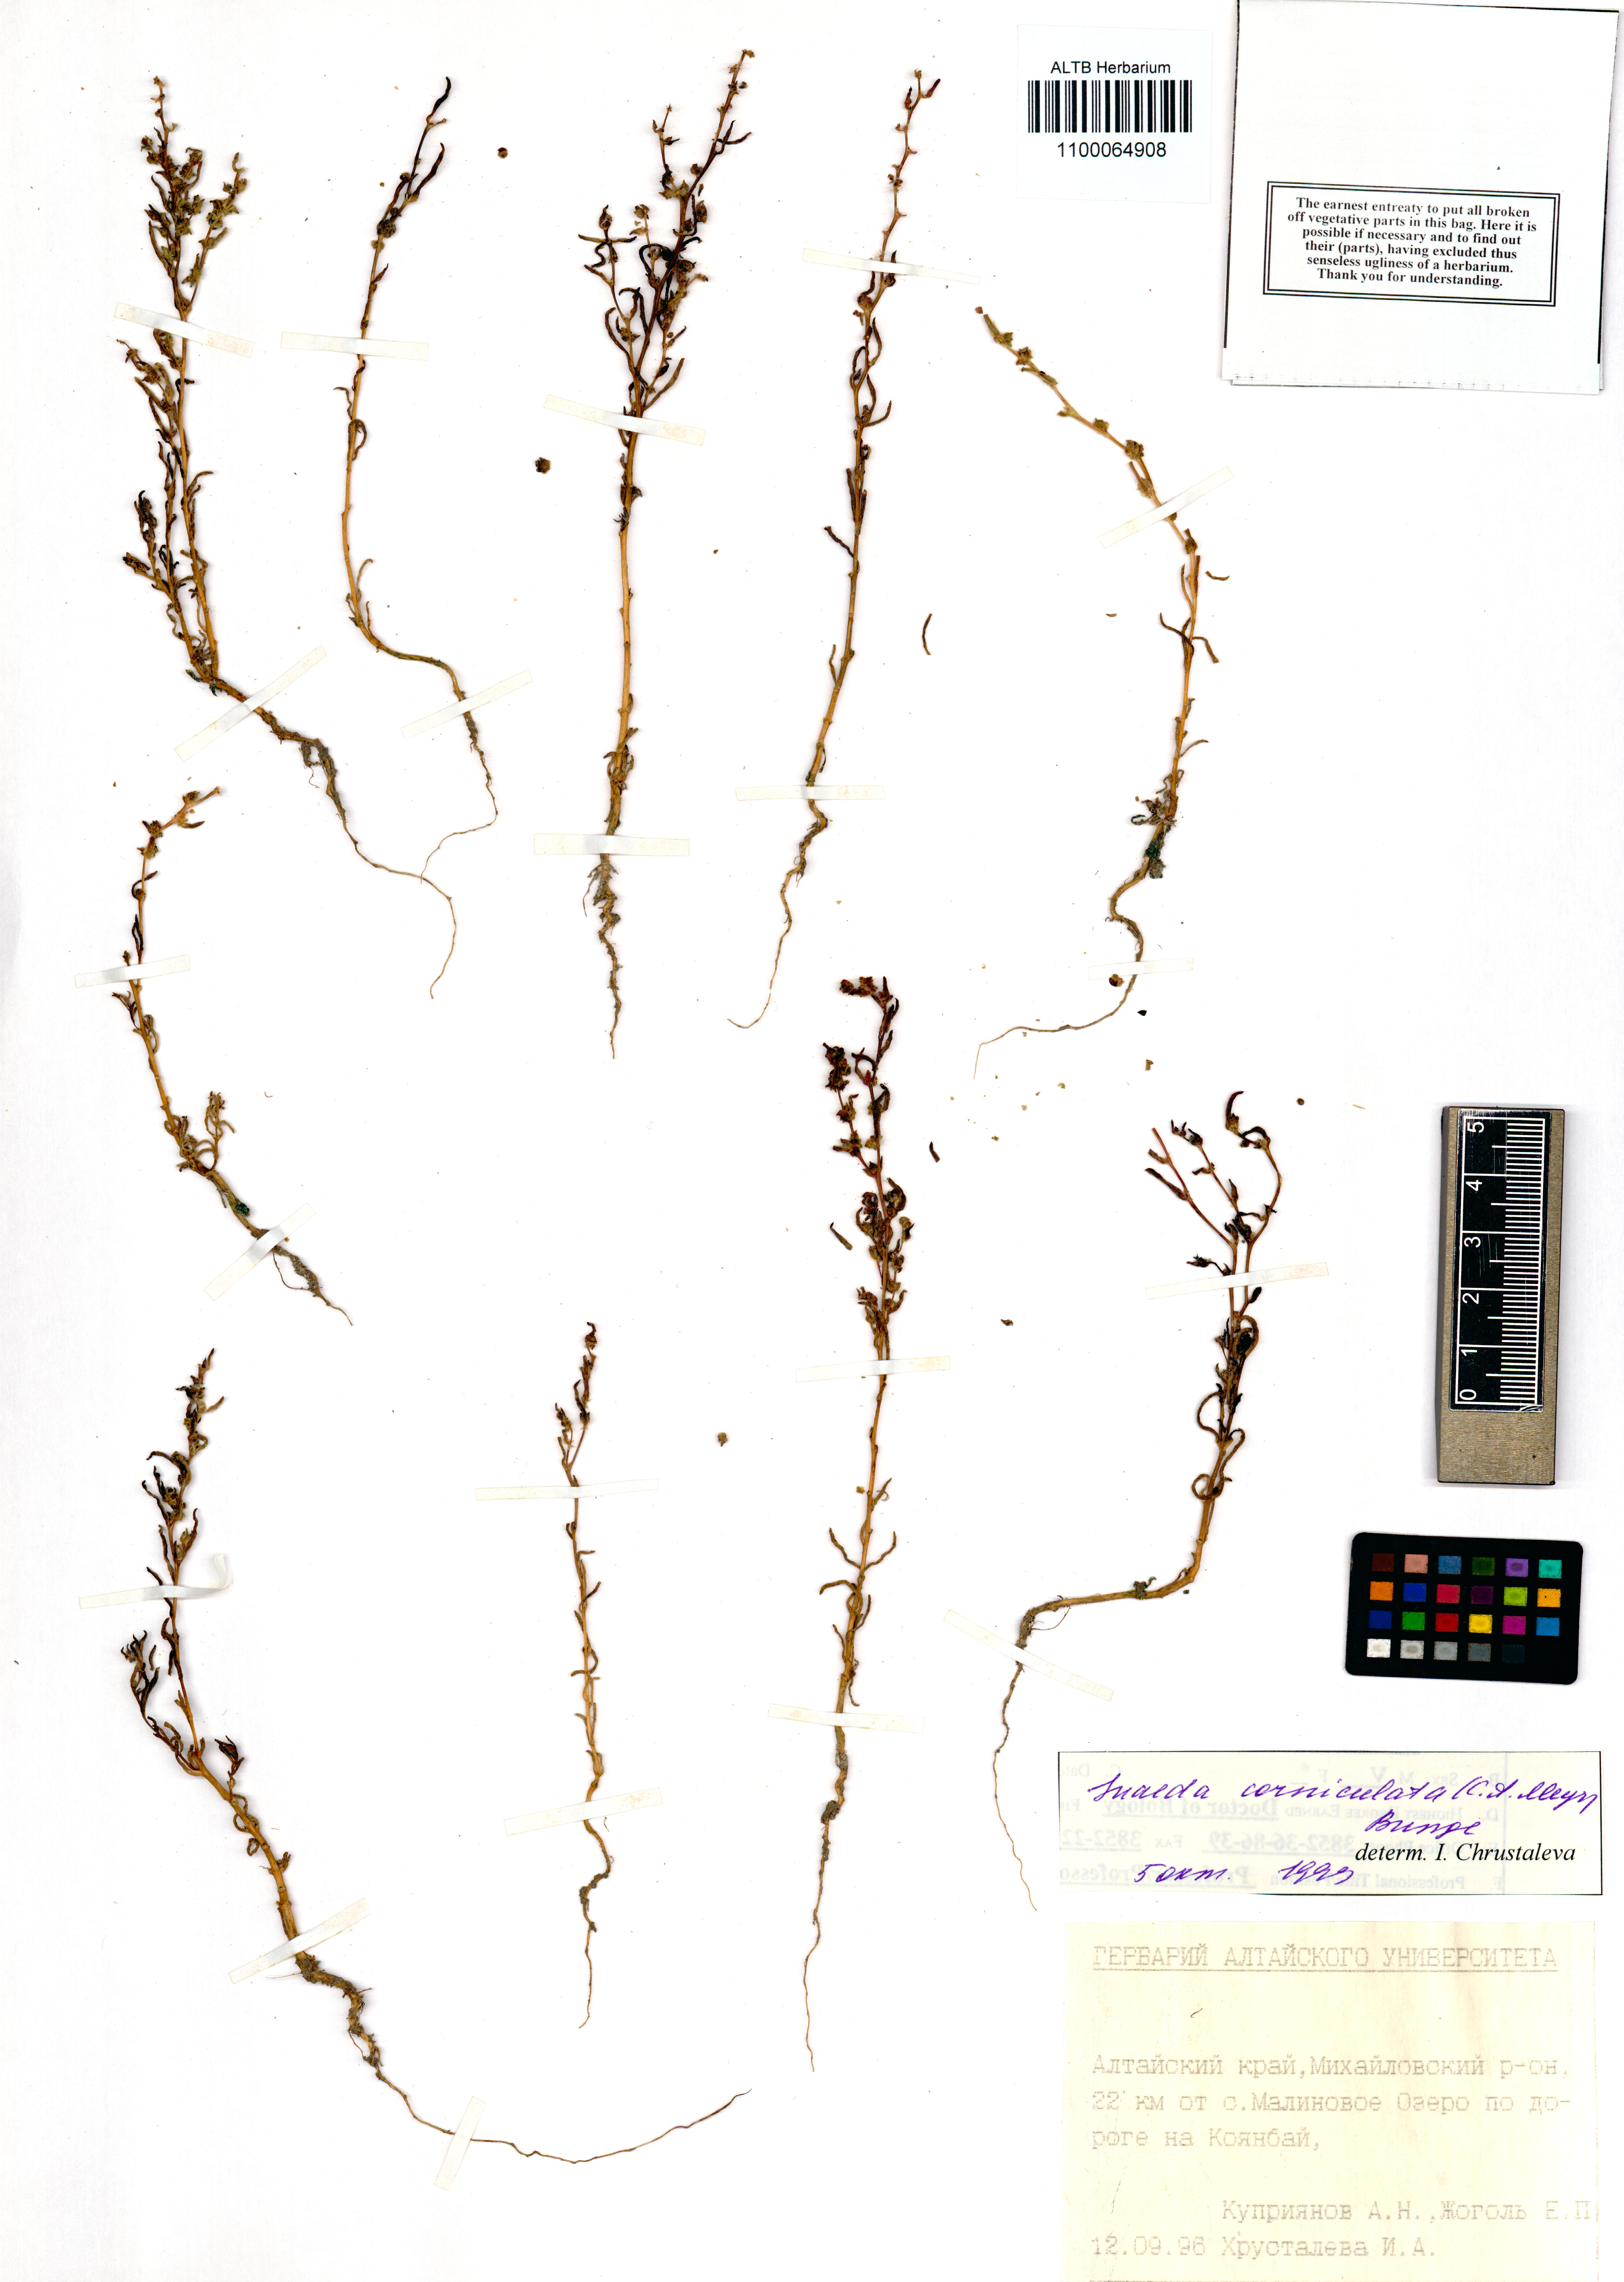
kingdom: Plantae
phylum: Tracheophyta
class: Magnoliopsida
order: Caryophyllales
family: Amaranthaceae
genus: Suaeda
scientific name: Suaeda corniculata
